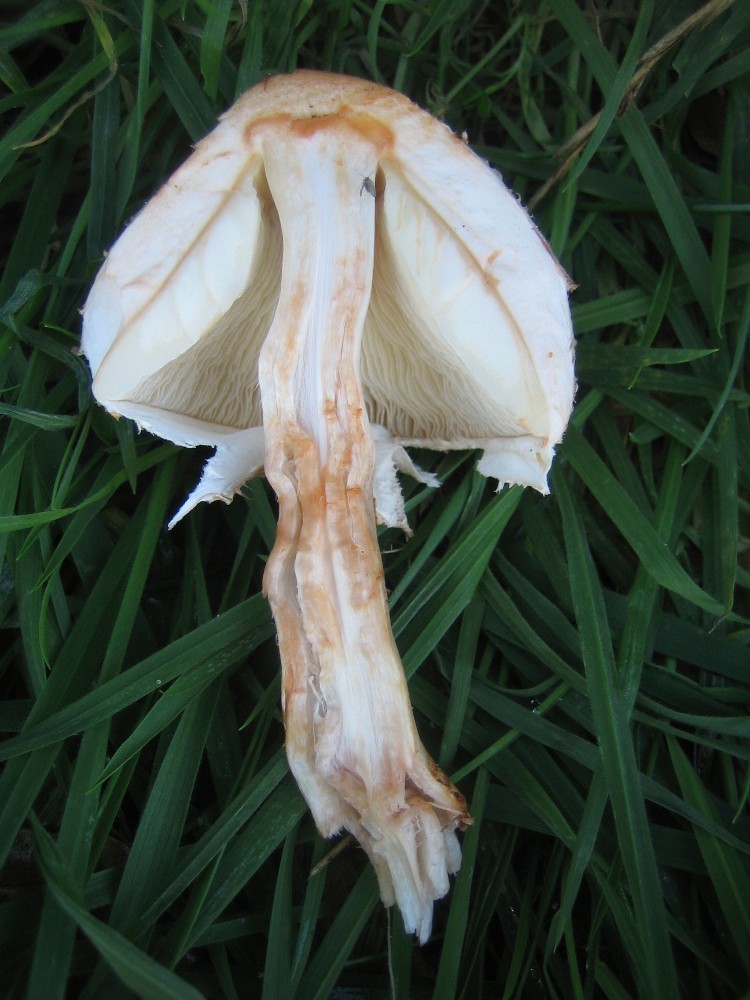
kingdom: Fungi
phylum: Basidiomycota
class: Agaricomycetes
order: Agaricales
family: Agaricaceae
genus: Chlorophyllum
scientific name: Chlorophyllum olivieri
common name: almindelig rabarberhat
